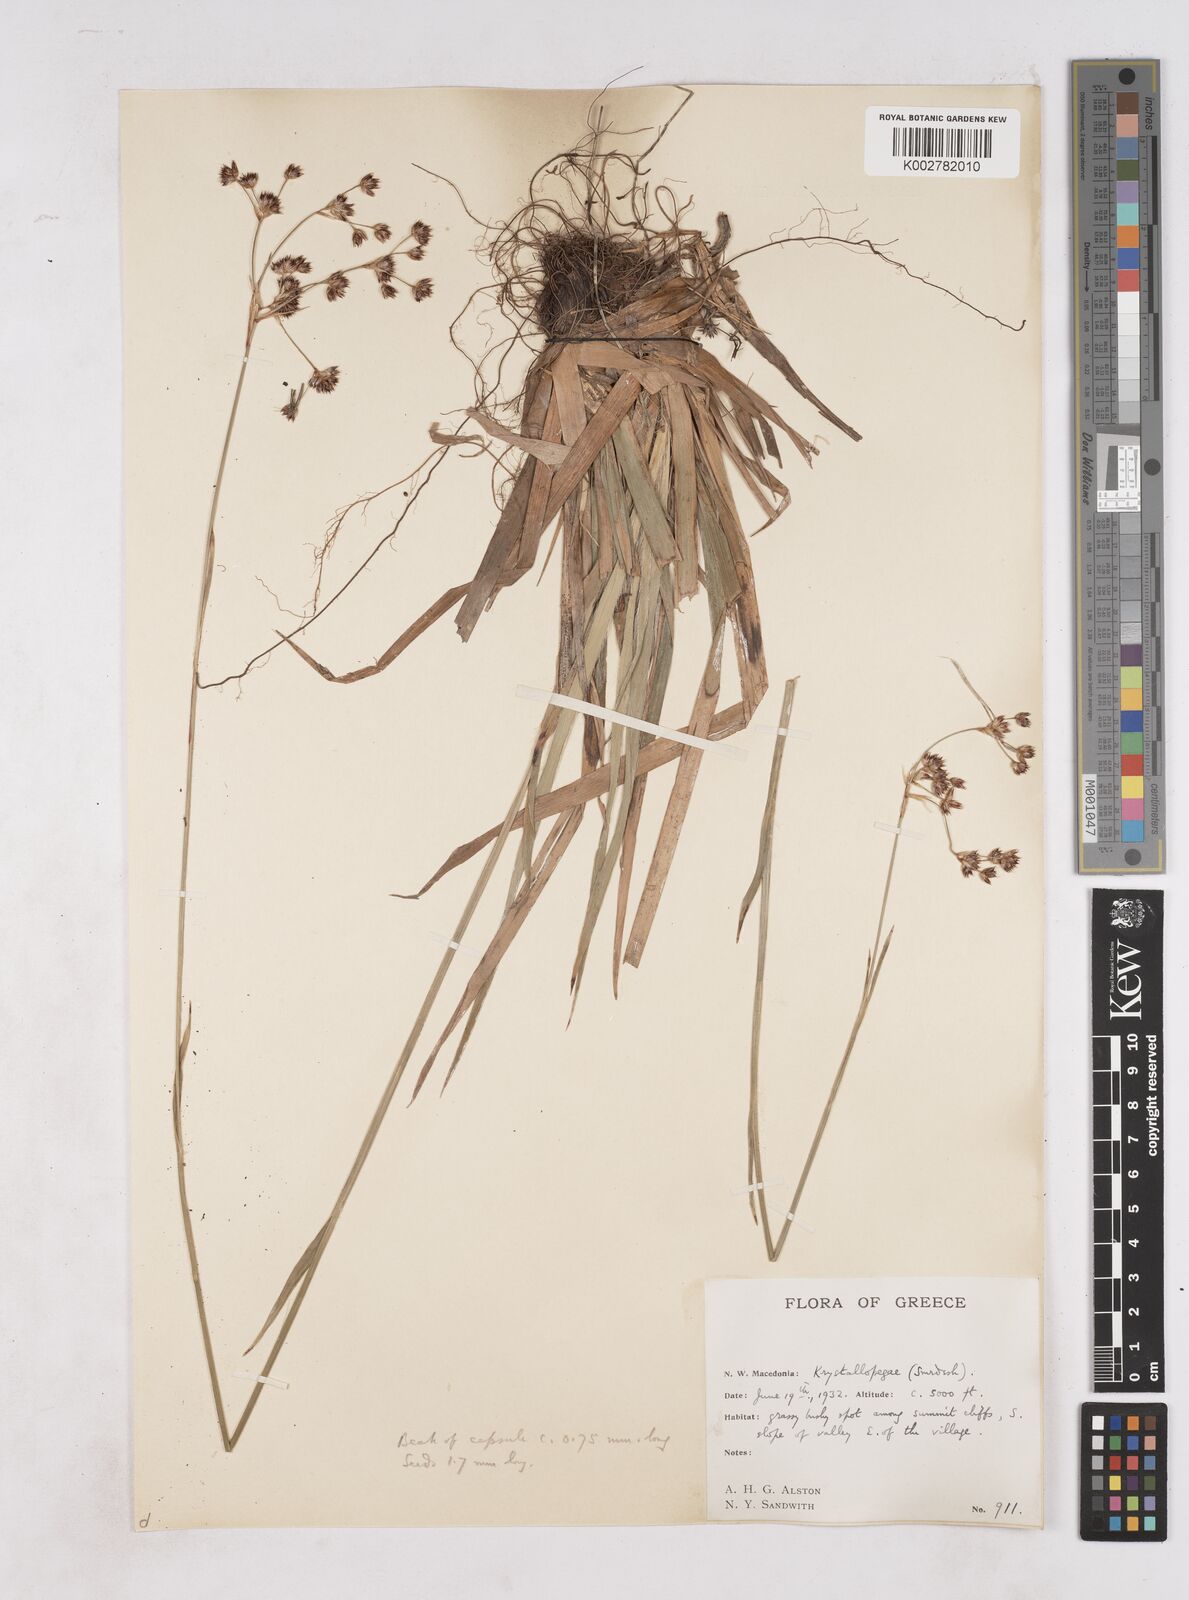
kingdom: Plantae
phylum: Tracheophyta
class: Liliopsida
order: Poales
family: Juncaceae
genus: Luzula
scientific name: Luzula sylvatica
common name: Great wood-rush
